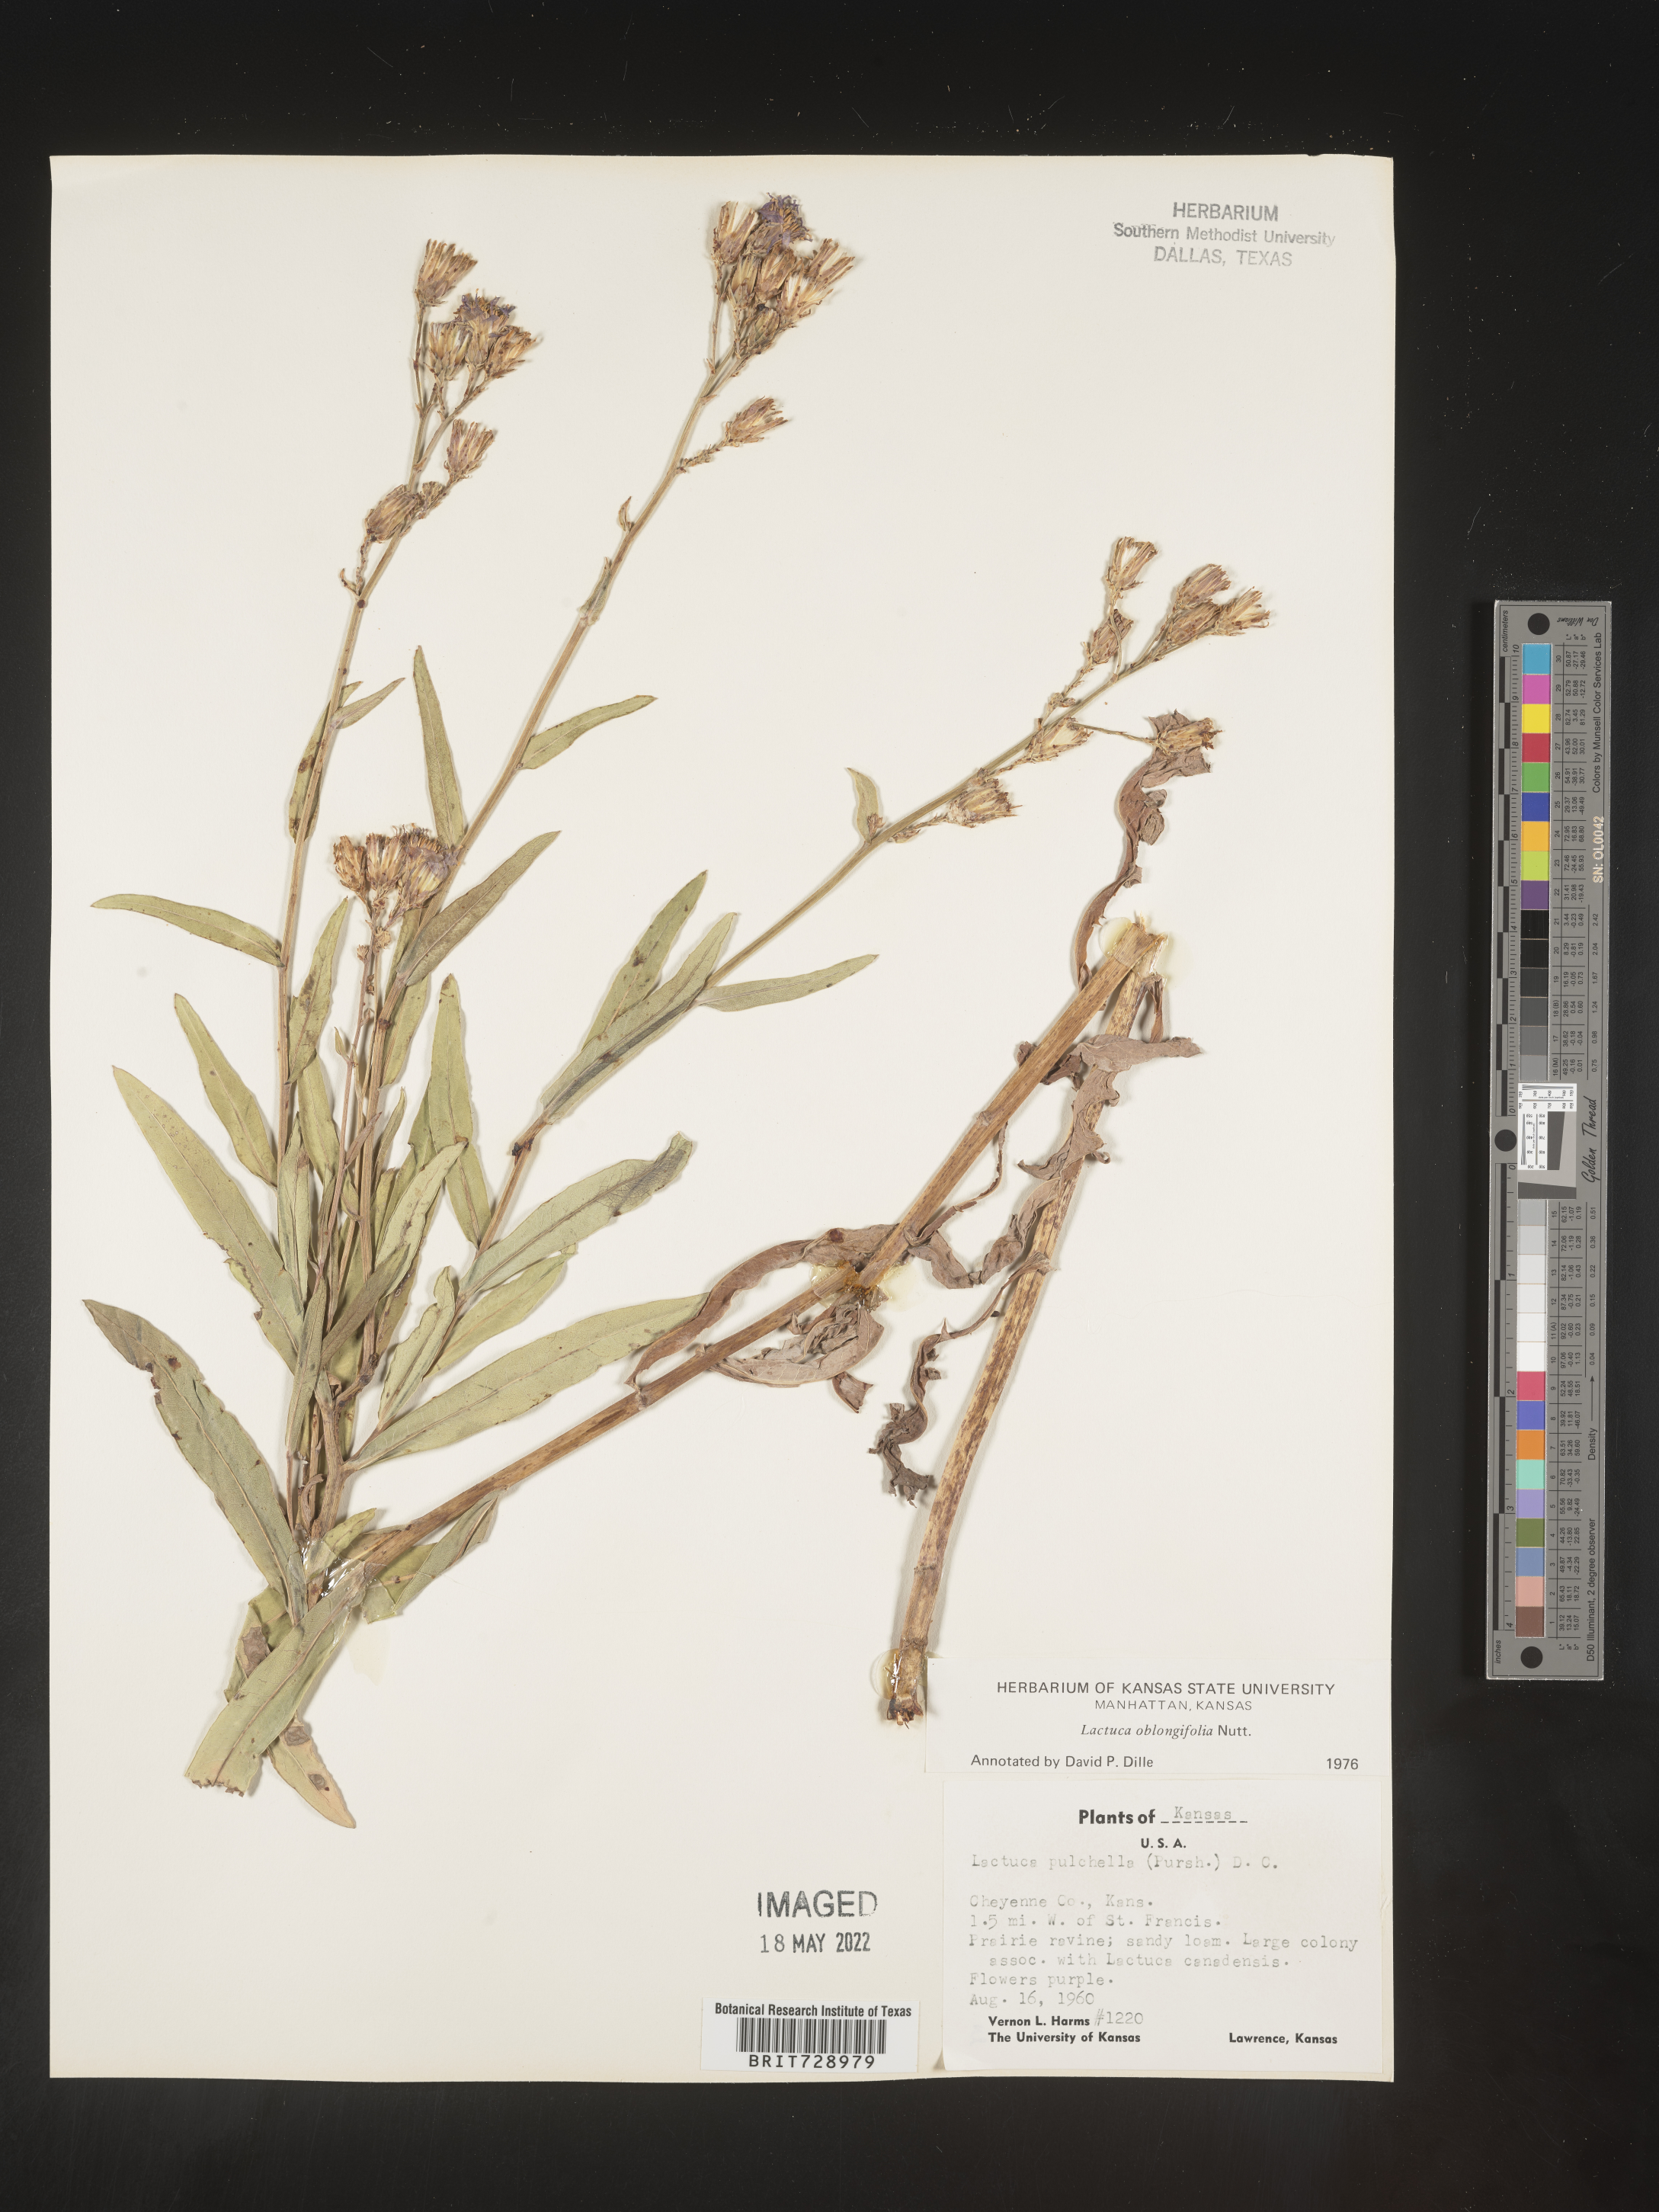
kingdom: Plantae
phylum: Tracheophyta
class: Magnoliopsida
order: Asterales
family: Asteraceae
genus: Lactuca
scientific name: Lactuca pulchella
